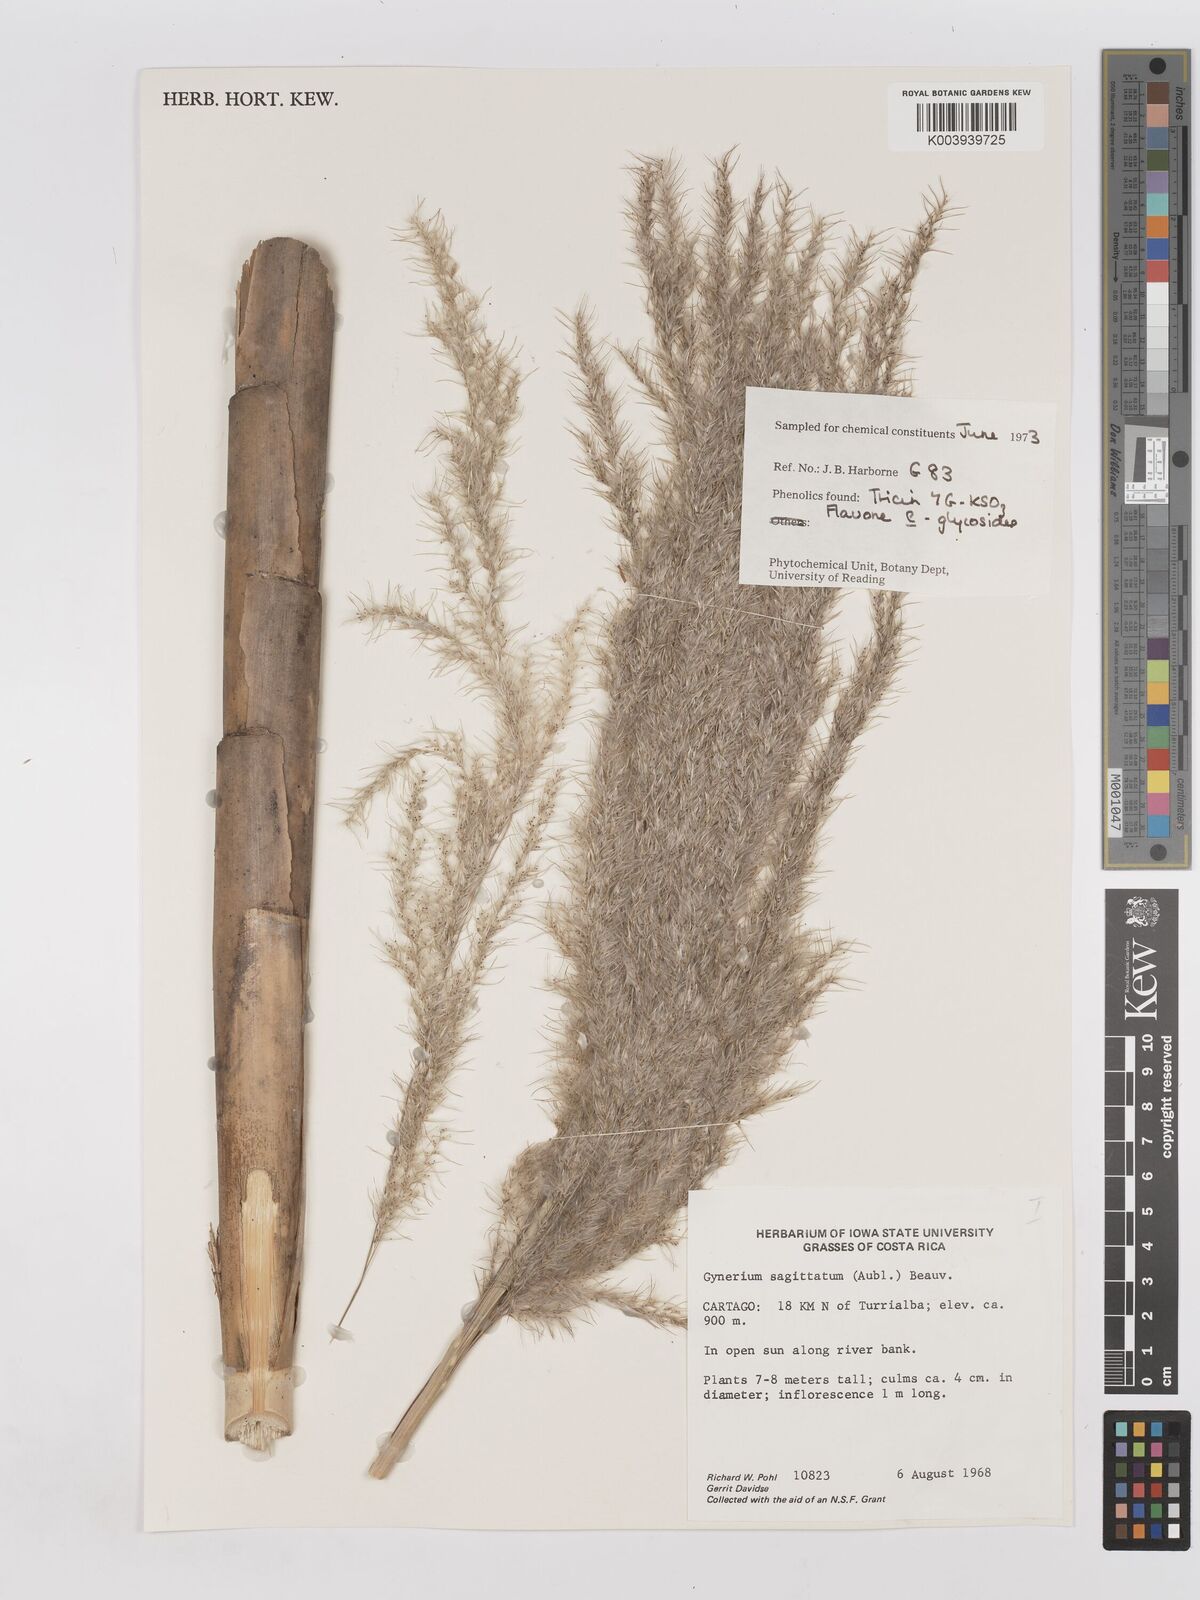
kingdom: Plantae
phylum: Tracheophyta
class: Liliopsida
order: Poales
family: Poaceae
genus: Gynerium
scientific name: Gynerium sagittatum
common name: Wild cane
